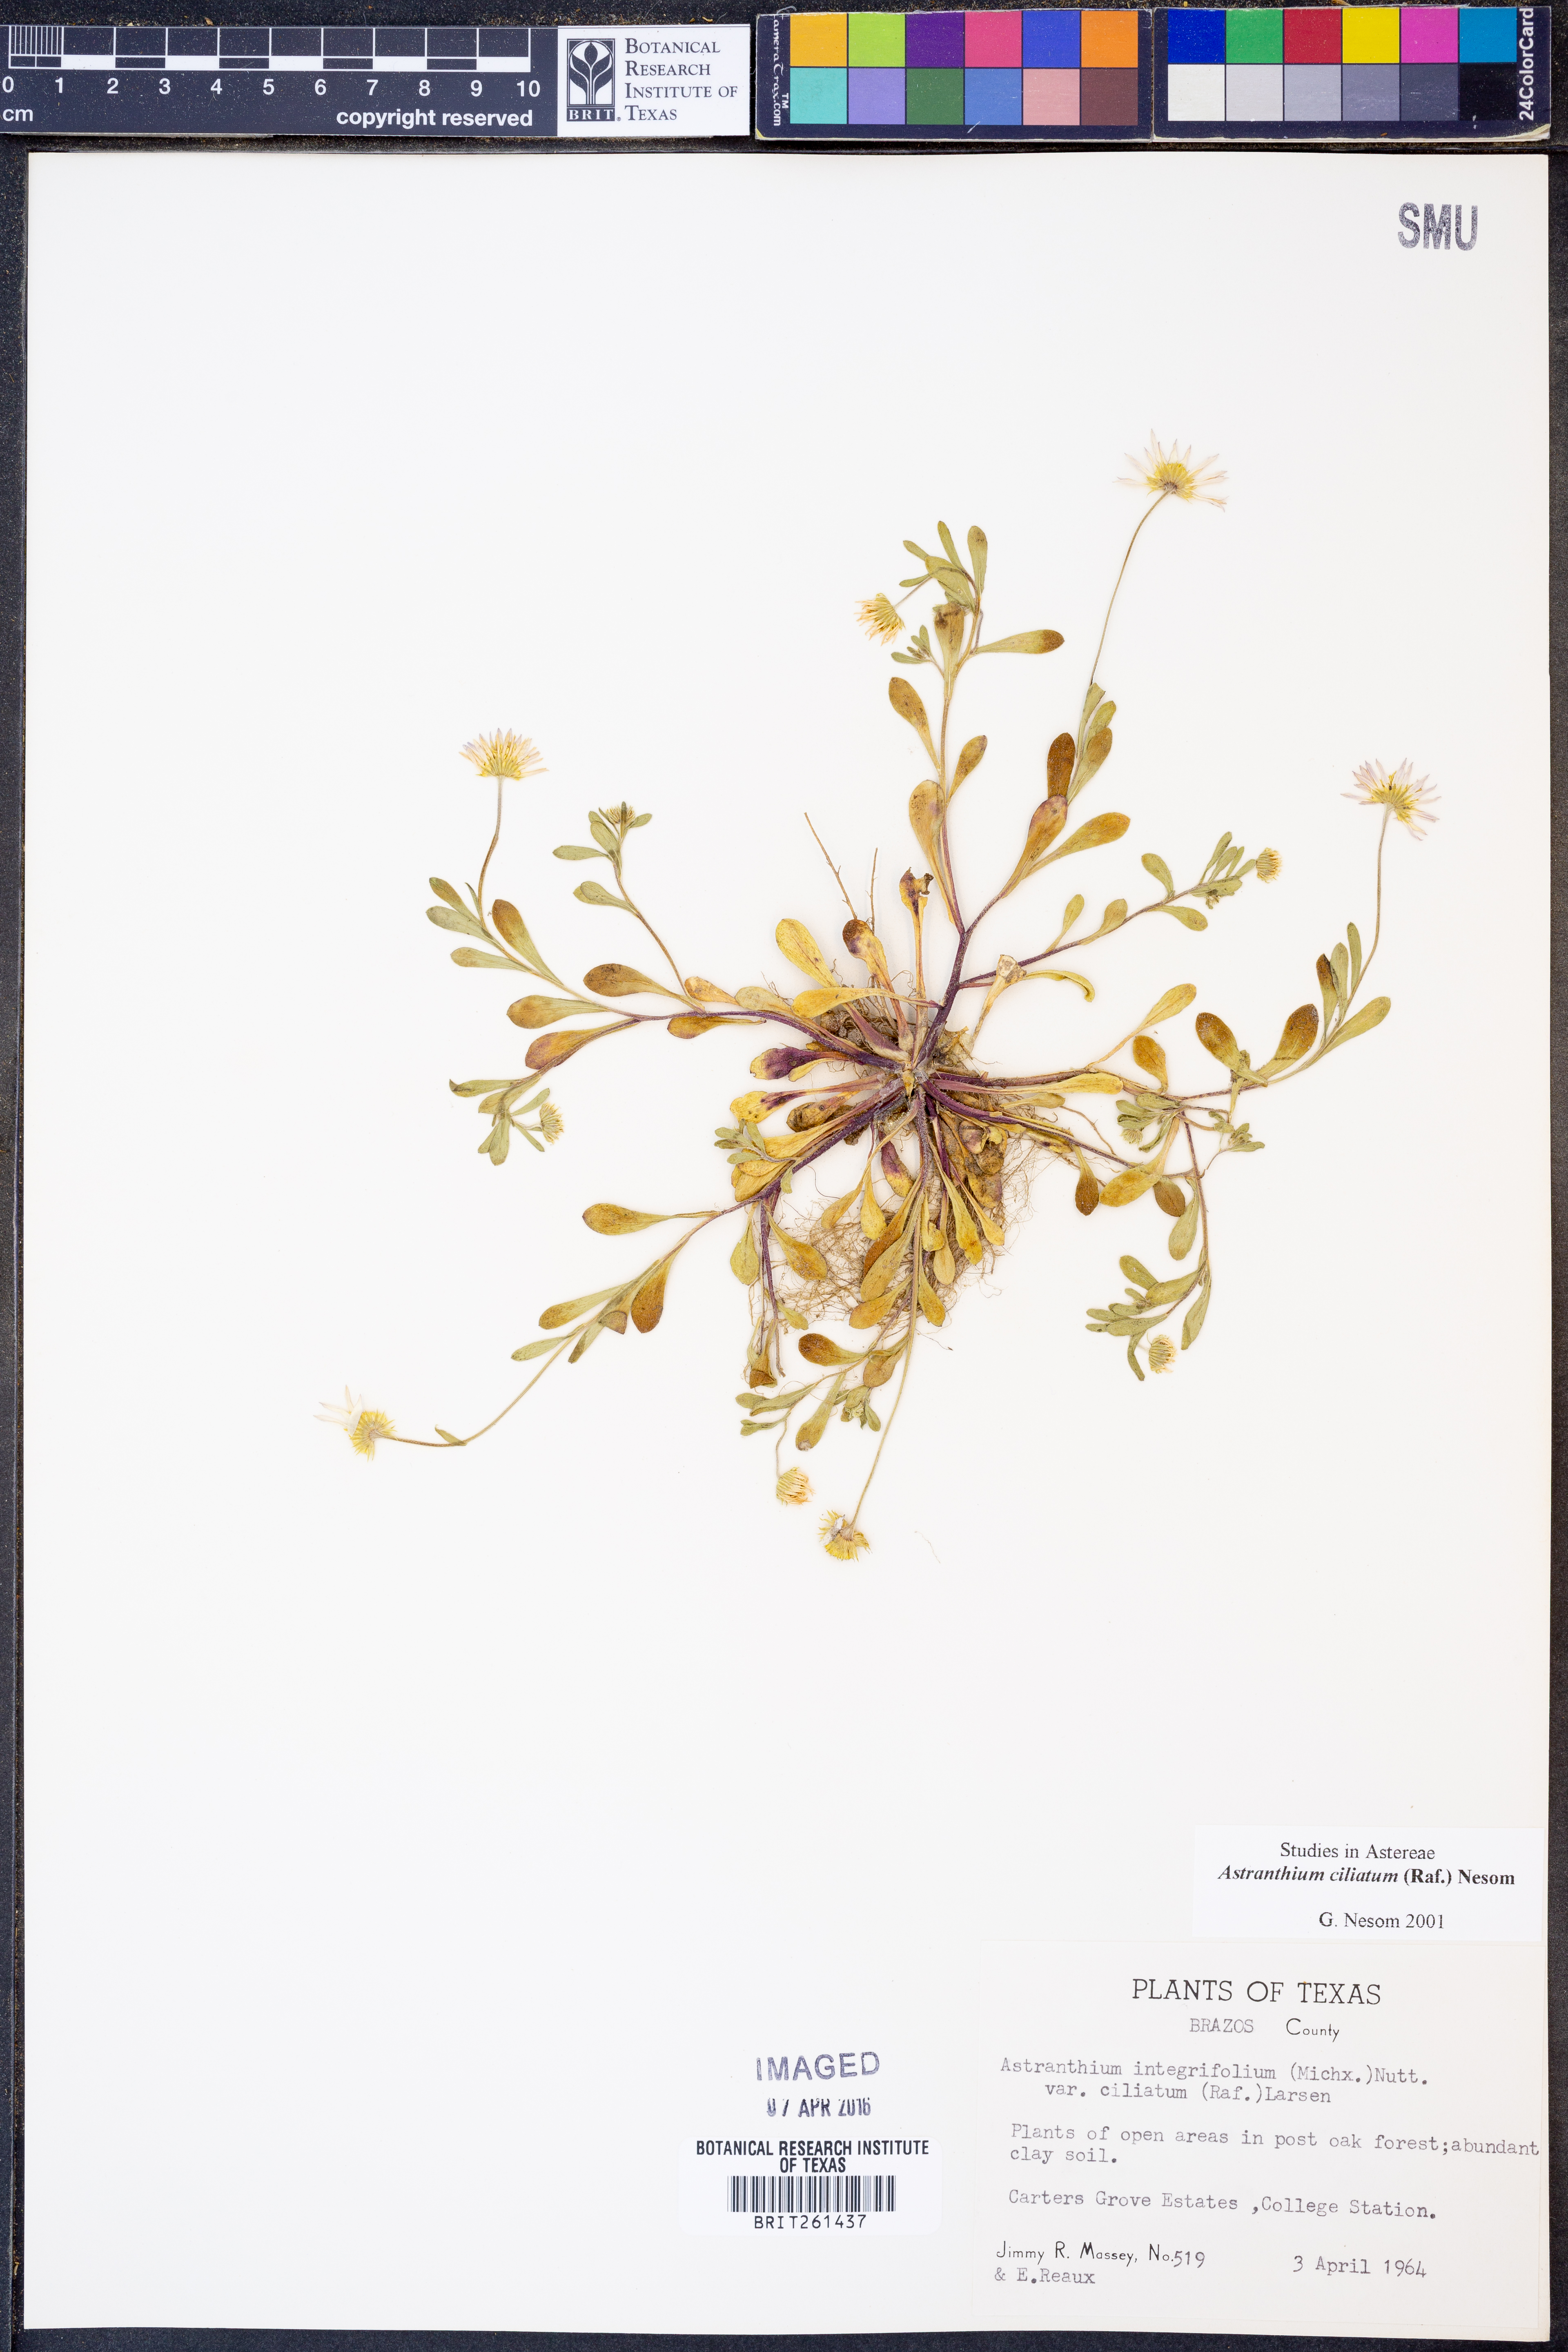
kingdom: Plantae
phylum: Tracheophyta
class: Magnoliopsida
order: Asterales
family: Asteraceae
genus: Astranthium
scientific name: Astranthium ciliatum
